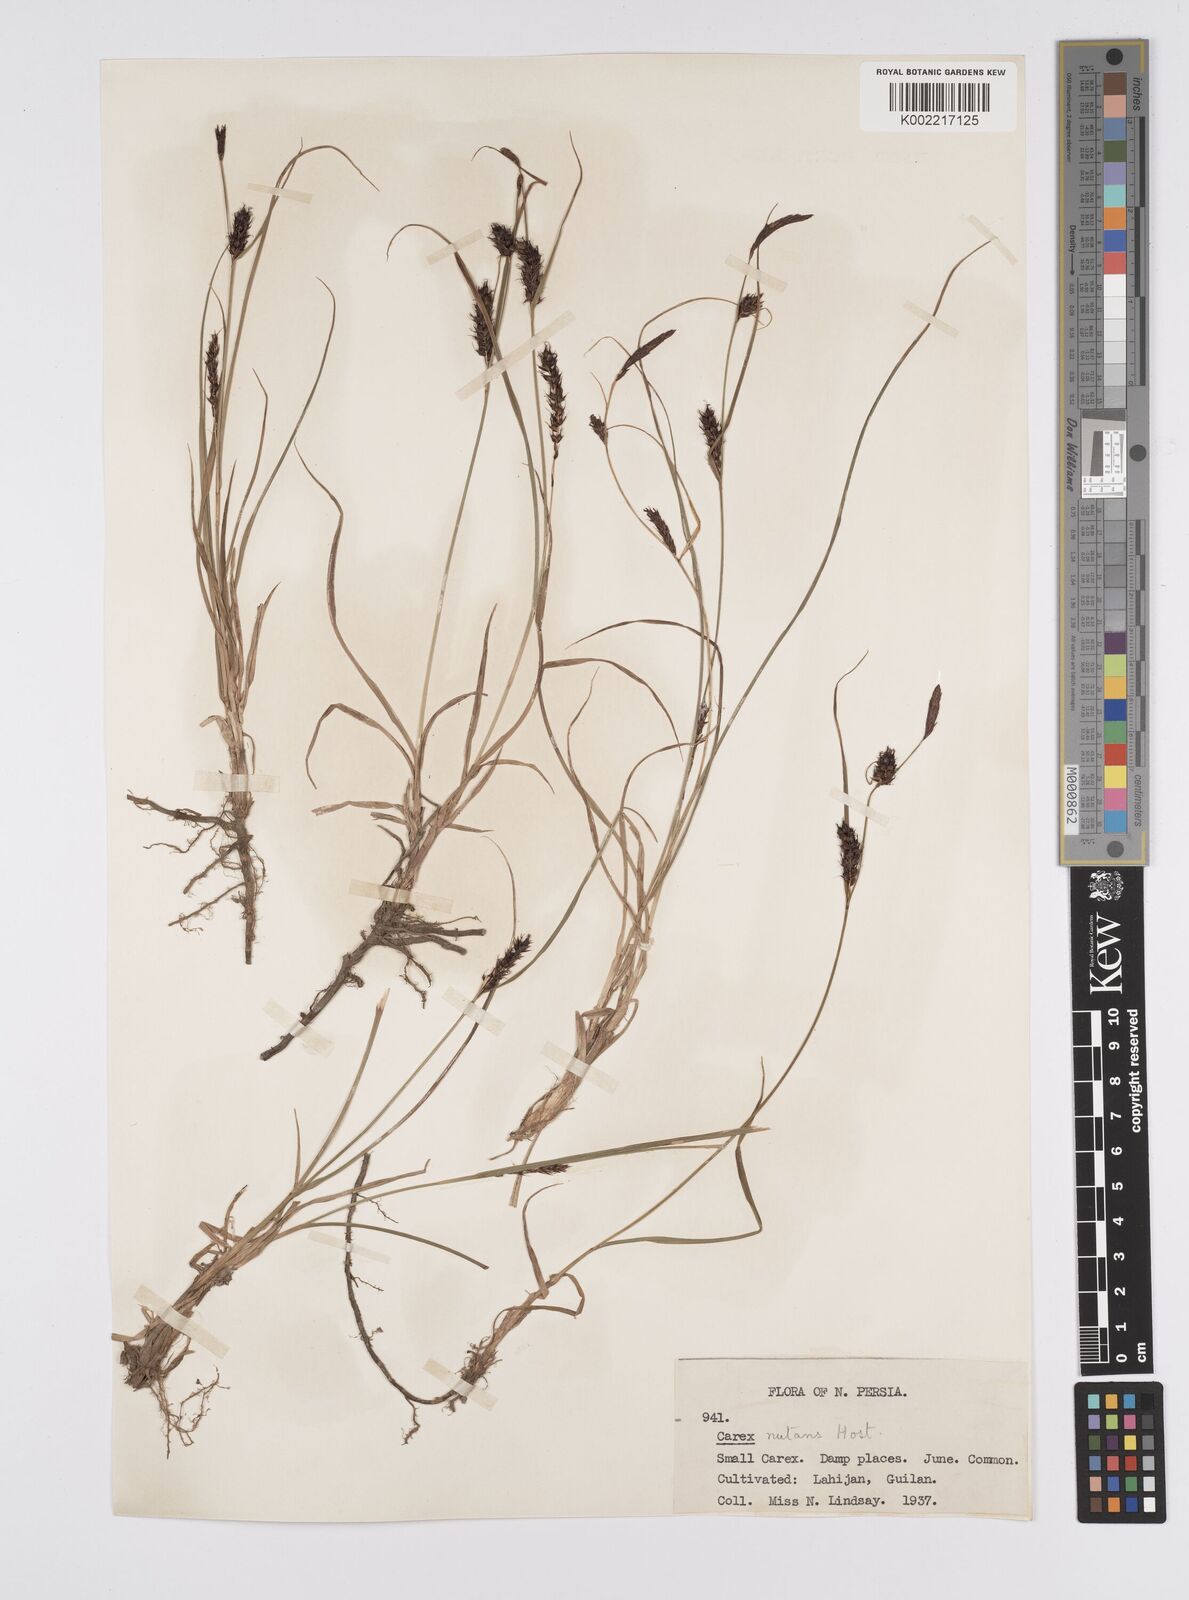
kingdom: Plantae
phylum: Tracheophyta
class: Liliopsida
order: Poales
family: Cyperaceae
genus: Carex
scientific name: Carex melanostachya
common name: Black-spiked sedge
